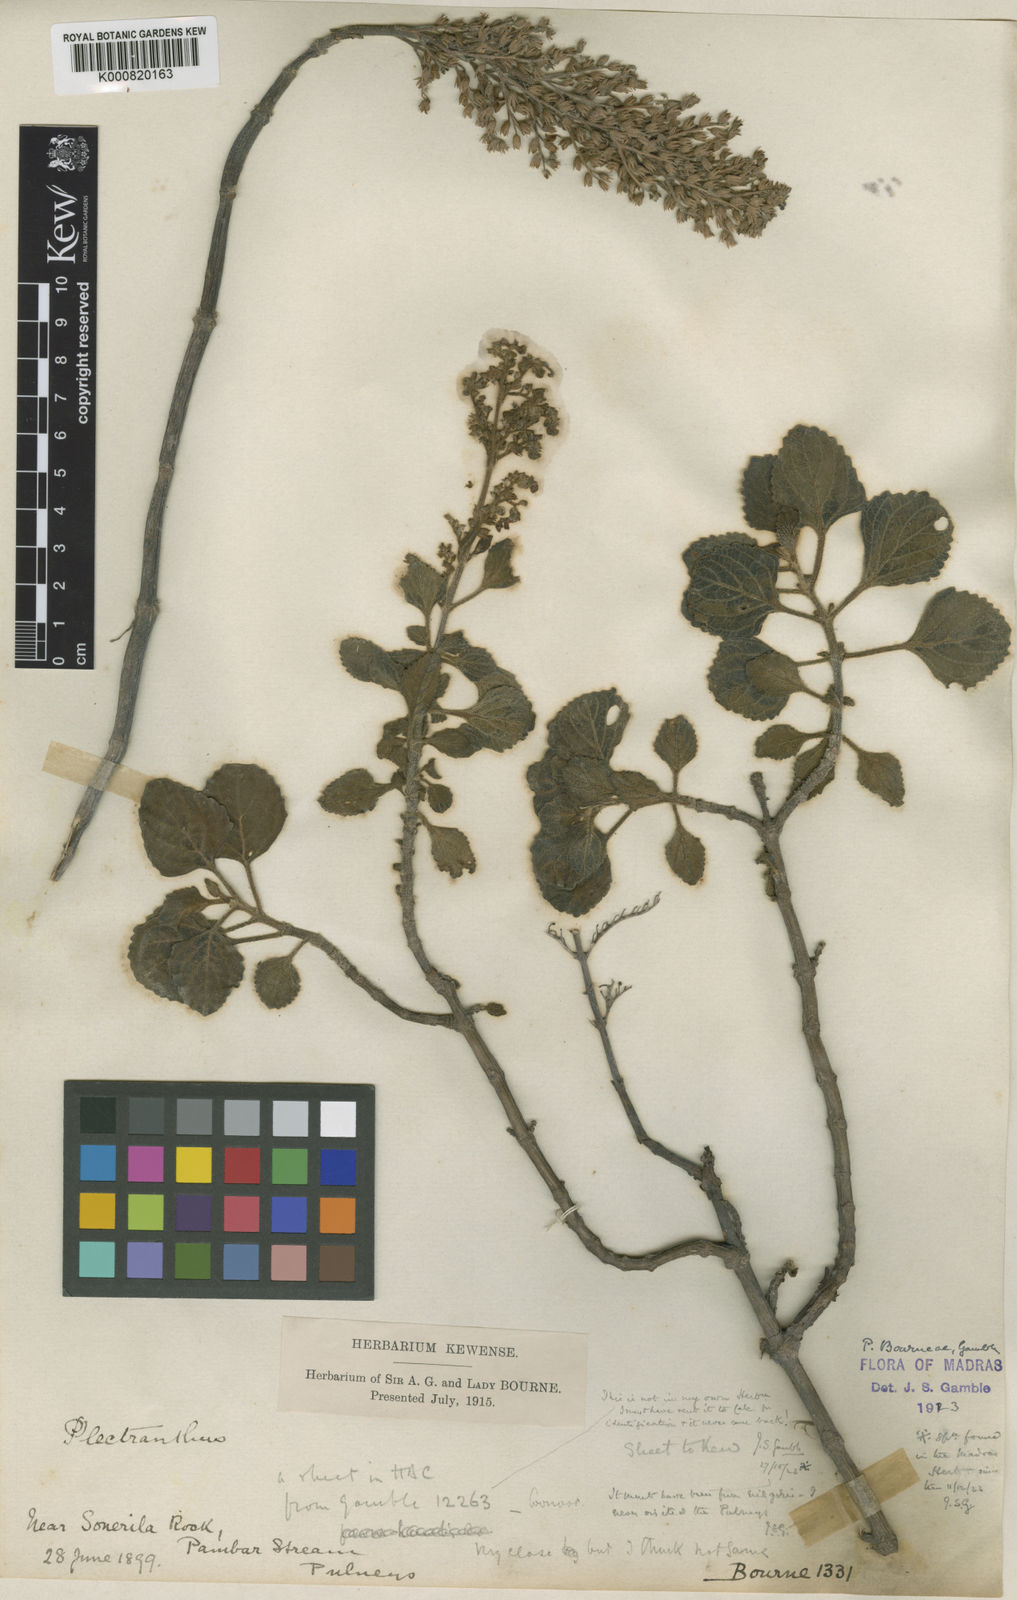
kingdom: Plantae
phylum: Tracheophyta
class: Magnoliopsida
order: Lamiales
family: Lamiaceae
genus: Coleus
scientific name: Coleus bourneae
